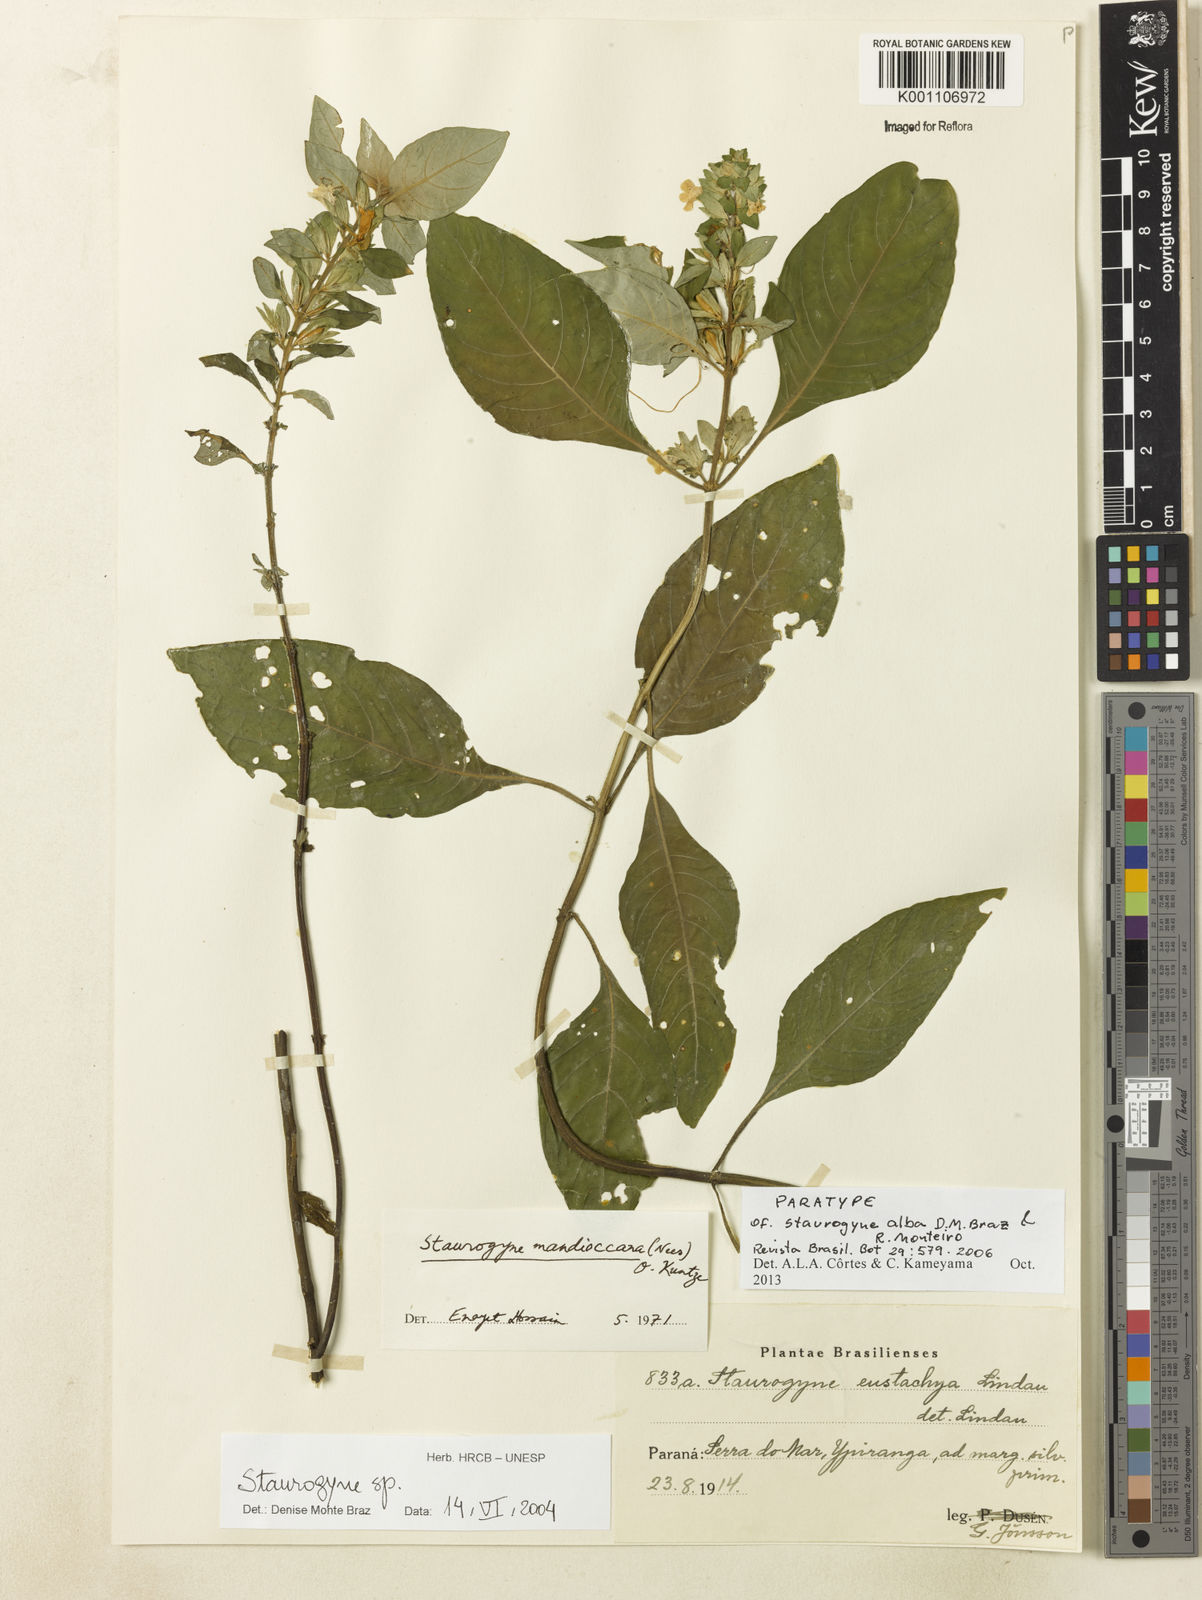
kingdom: Plantae
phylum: Tracheophyta
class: Magnoliopsida
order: Lamiales
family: Acanthaceae
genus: Staurogyne
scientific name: Staurogyne alba
